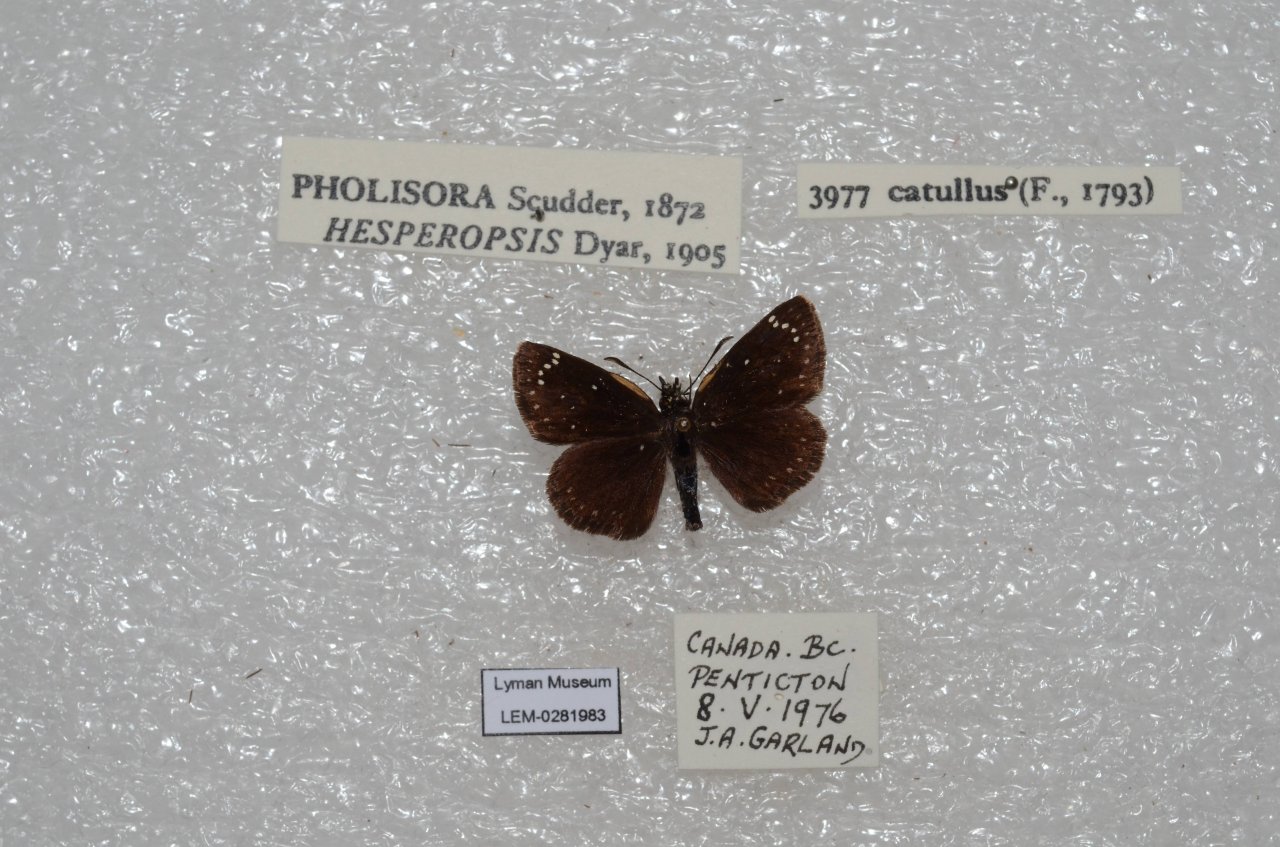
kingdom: Animalia
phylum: Arthropoda
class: Insecta
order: Lepidoptera
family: Hesperiidae
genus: Pholisora
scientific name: Pholisora catullus
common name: Common Sootywing
